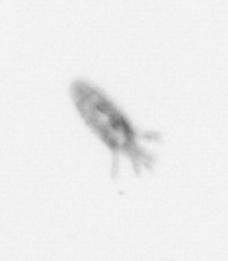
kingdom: Animalia
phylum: Arthropoda
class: Copepoda
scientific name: Copepoda
